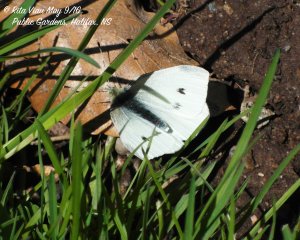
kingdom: Animalia
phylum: Arthropoda
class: Insecta
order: Lepidoptera
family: Pieridae
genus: Pieris
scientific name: Pieris rapae
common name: Cabbage White
